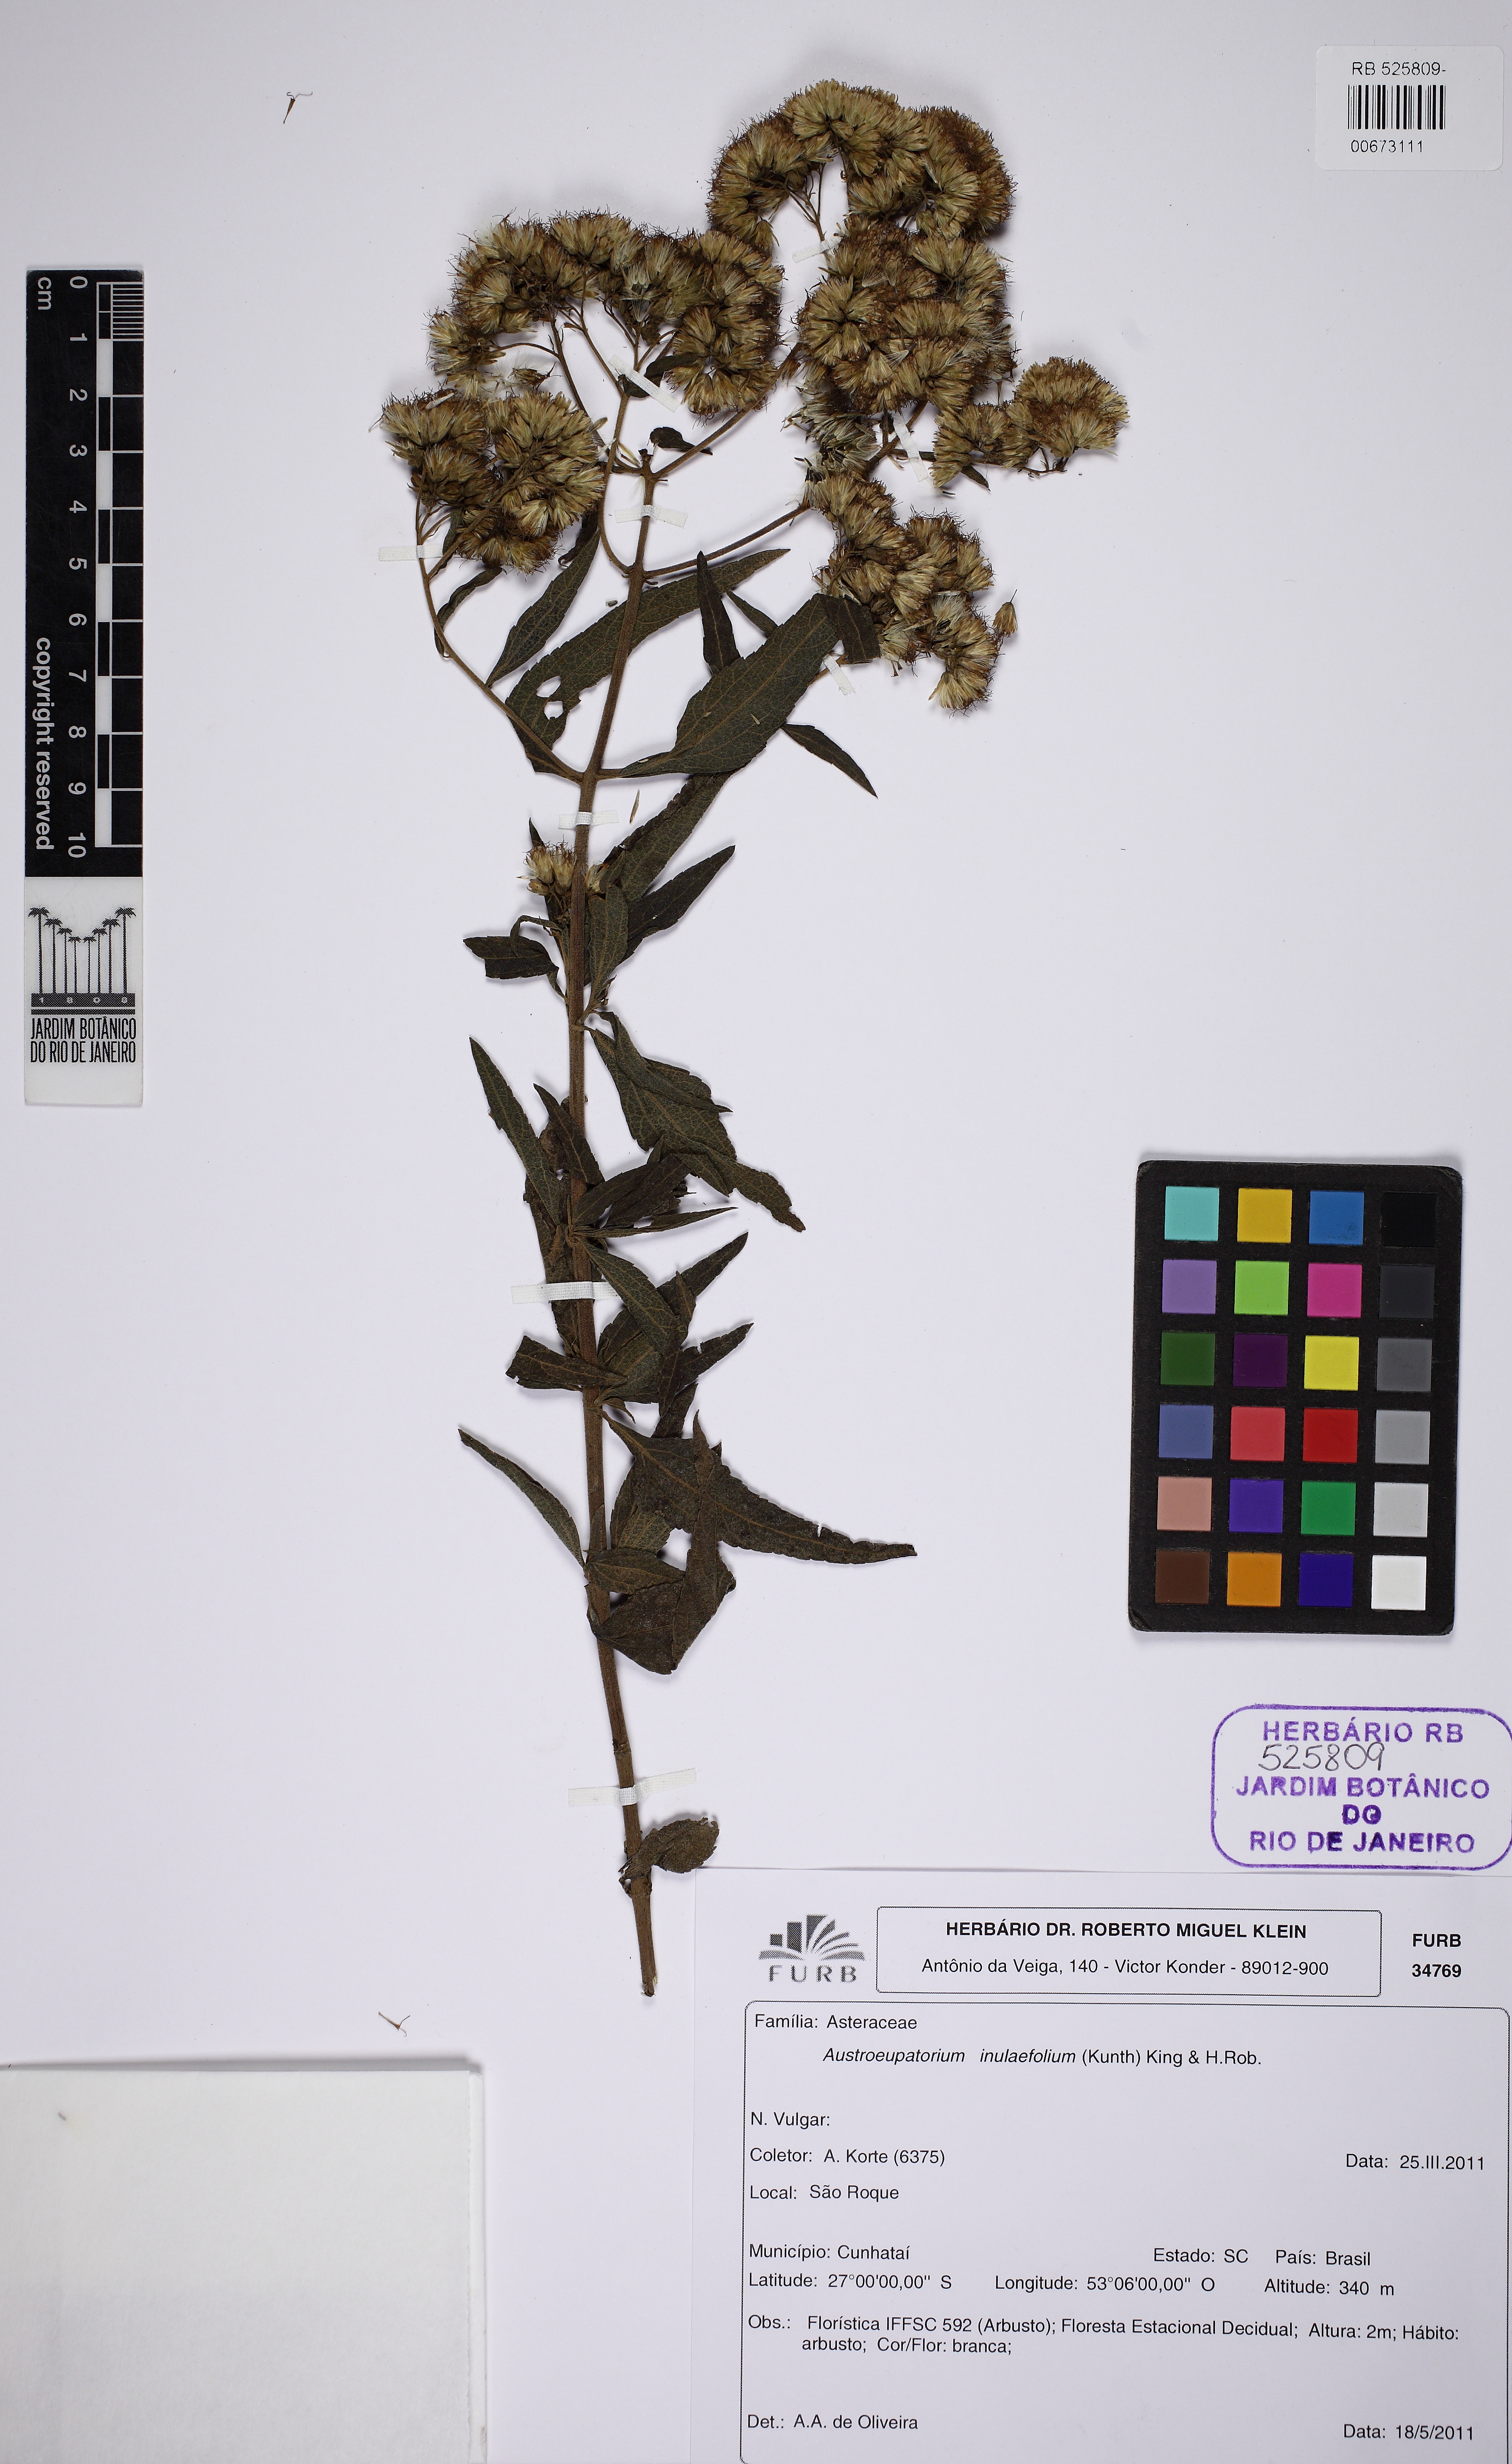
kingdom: Plantae
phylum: Tracheophyta
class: Magnoliopsida
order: Asterales
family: Asteraceae
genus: Austroeupatorium
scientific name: Austroeupatorium inulaefolium
